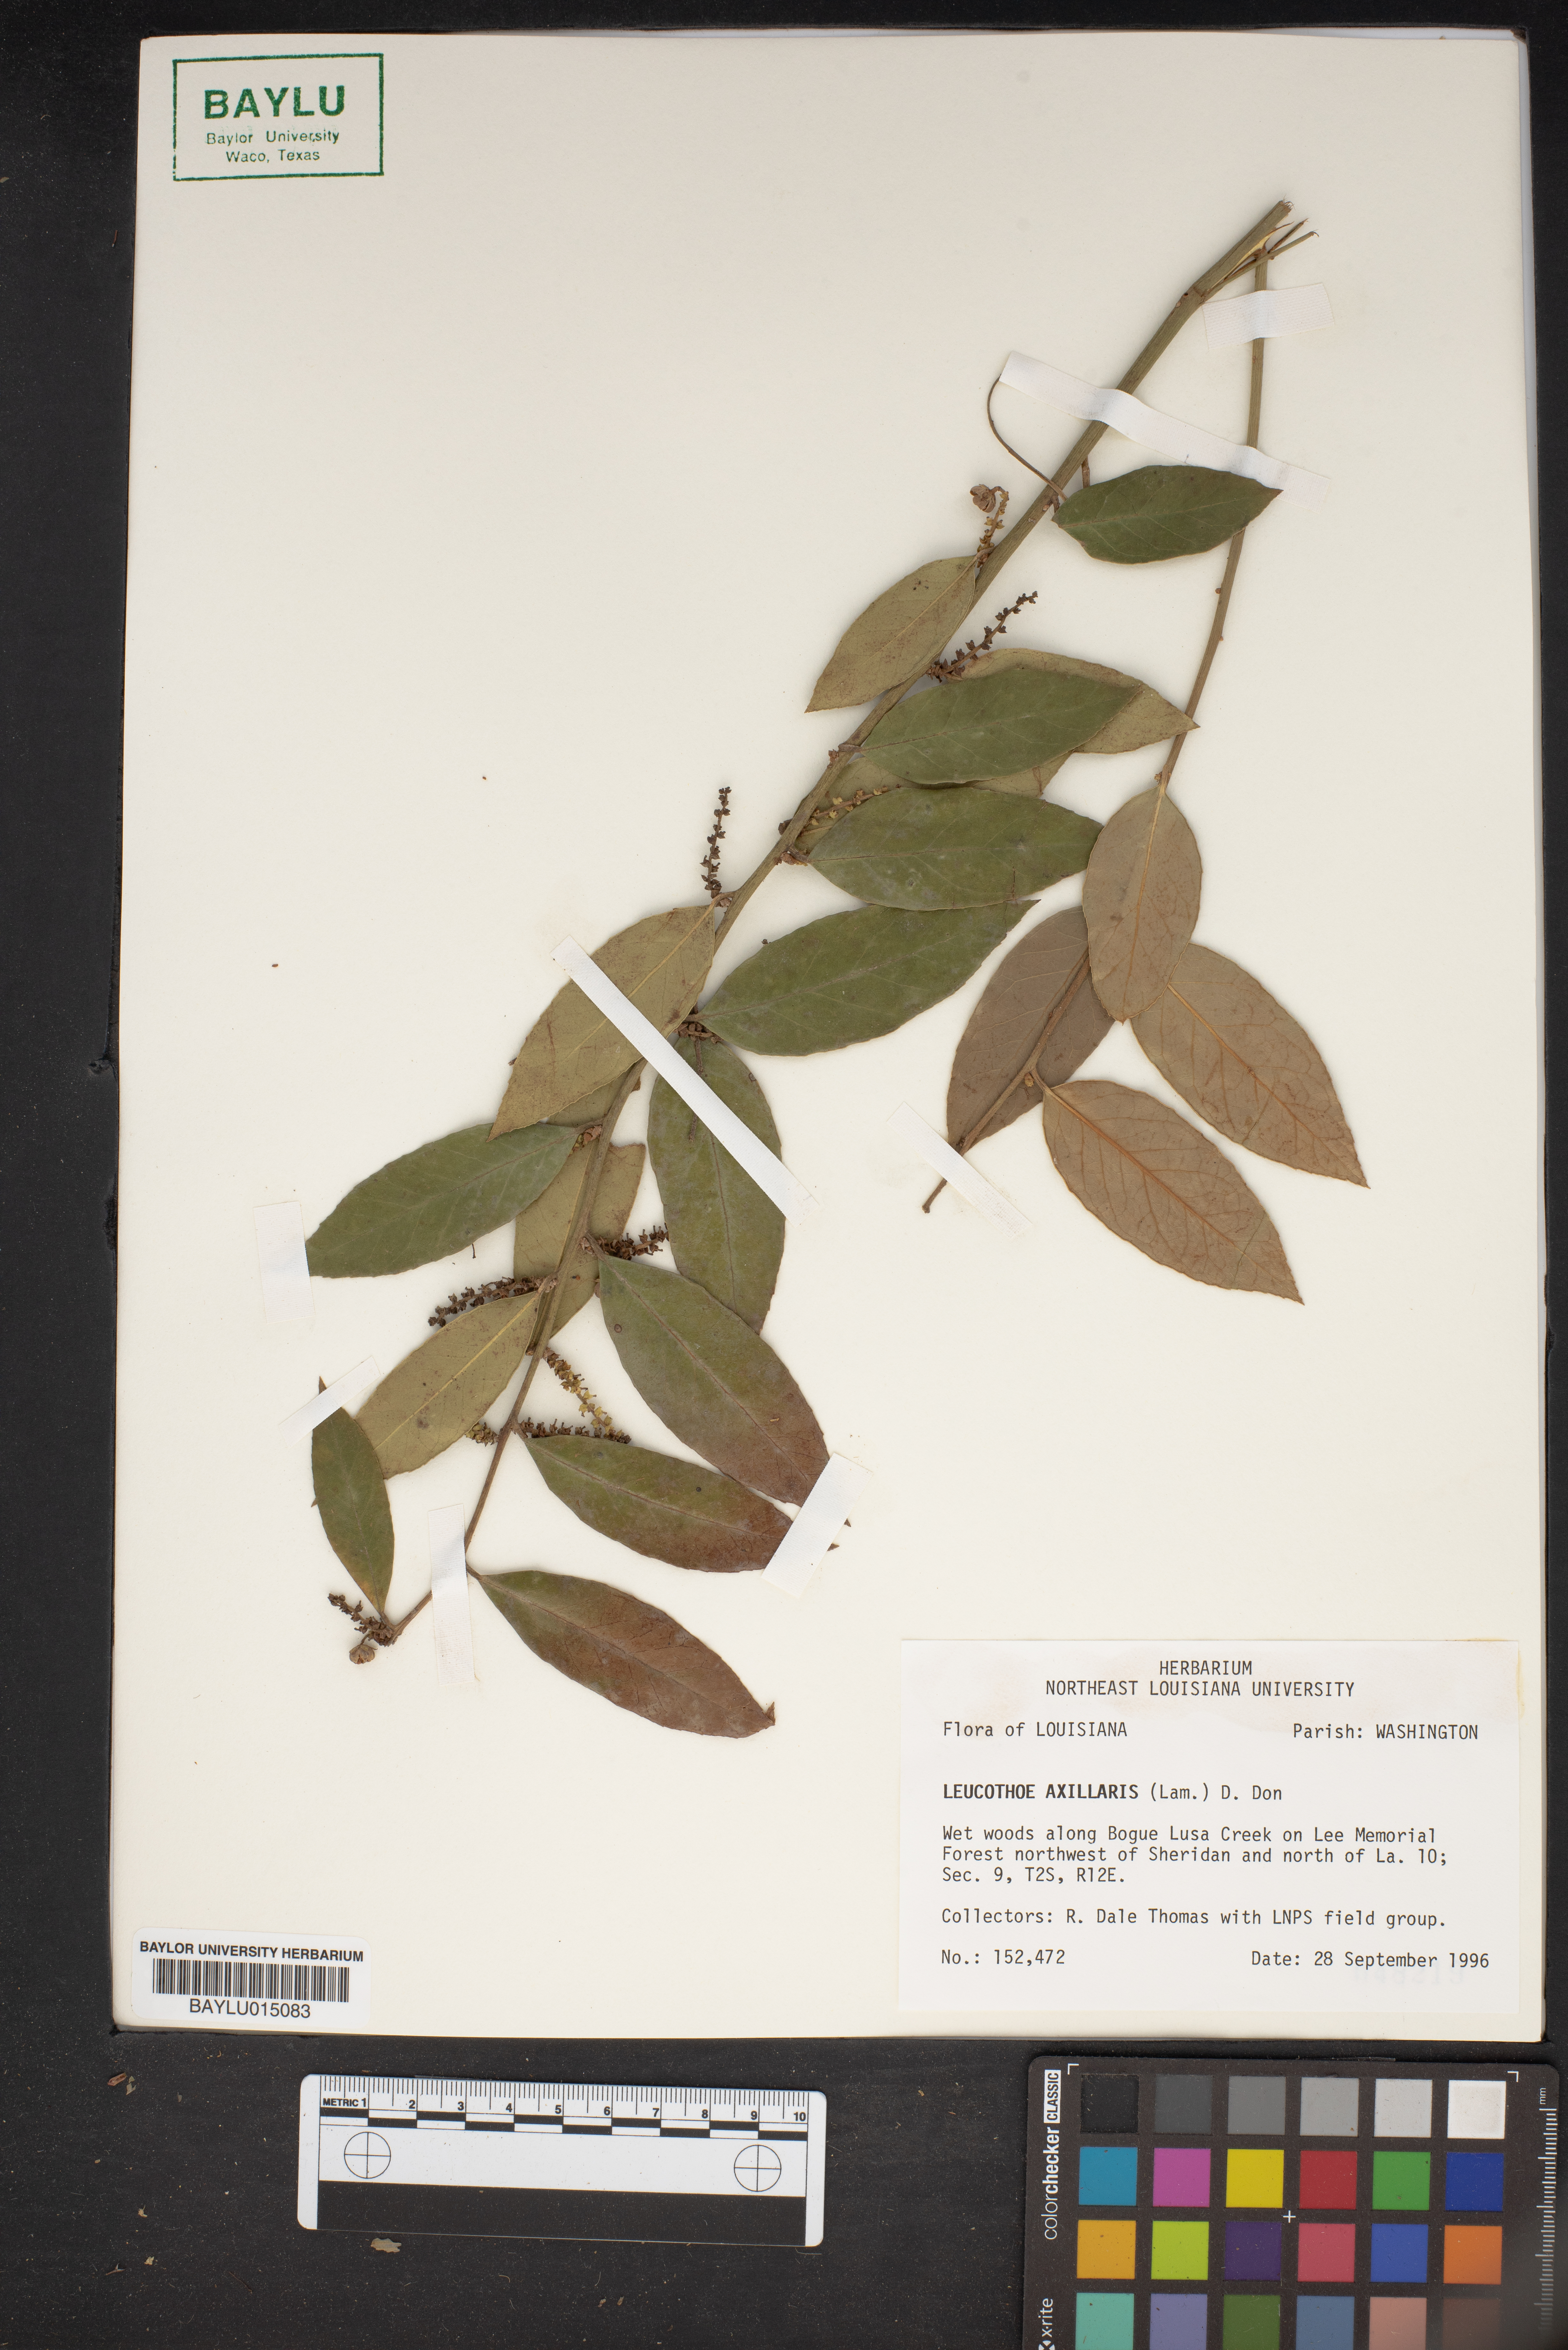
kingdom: Plantae
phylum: Tracheophyta
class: Magnoliopsida
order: Ericales
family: Ericaceae
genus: Leucothoe
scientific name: Leucothoe axillaris
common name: Leucothoe
